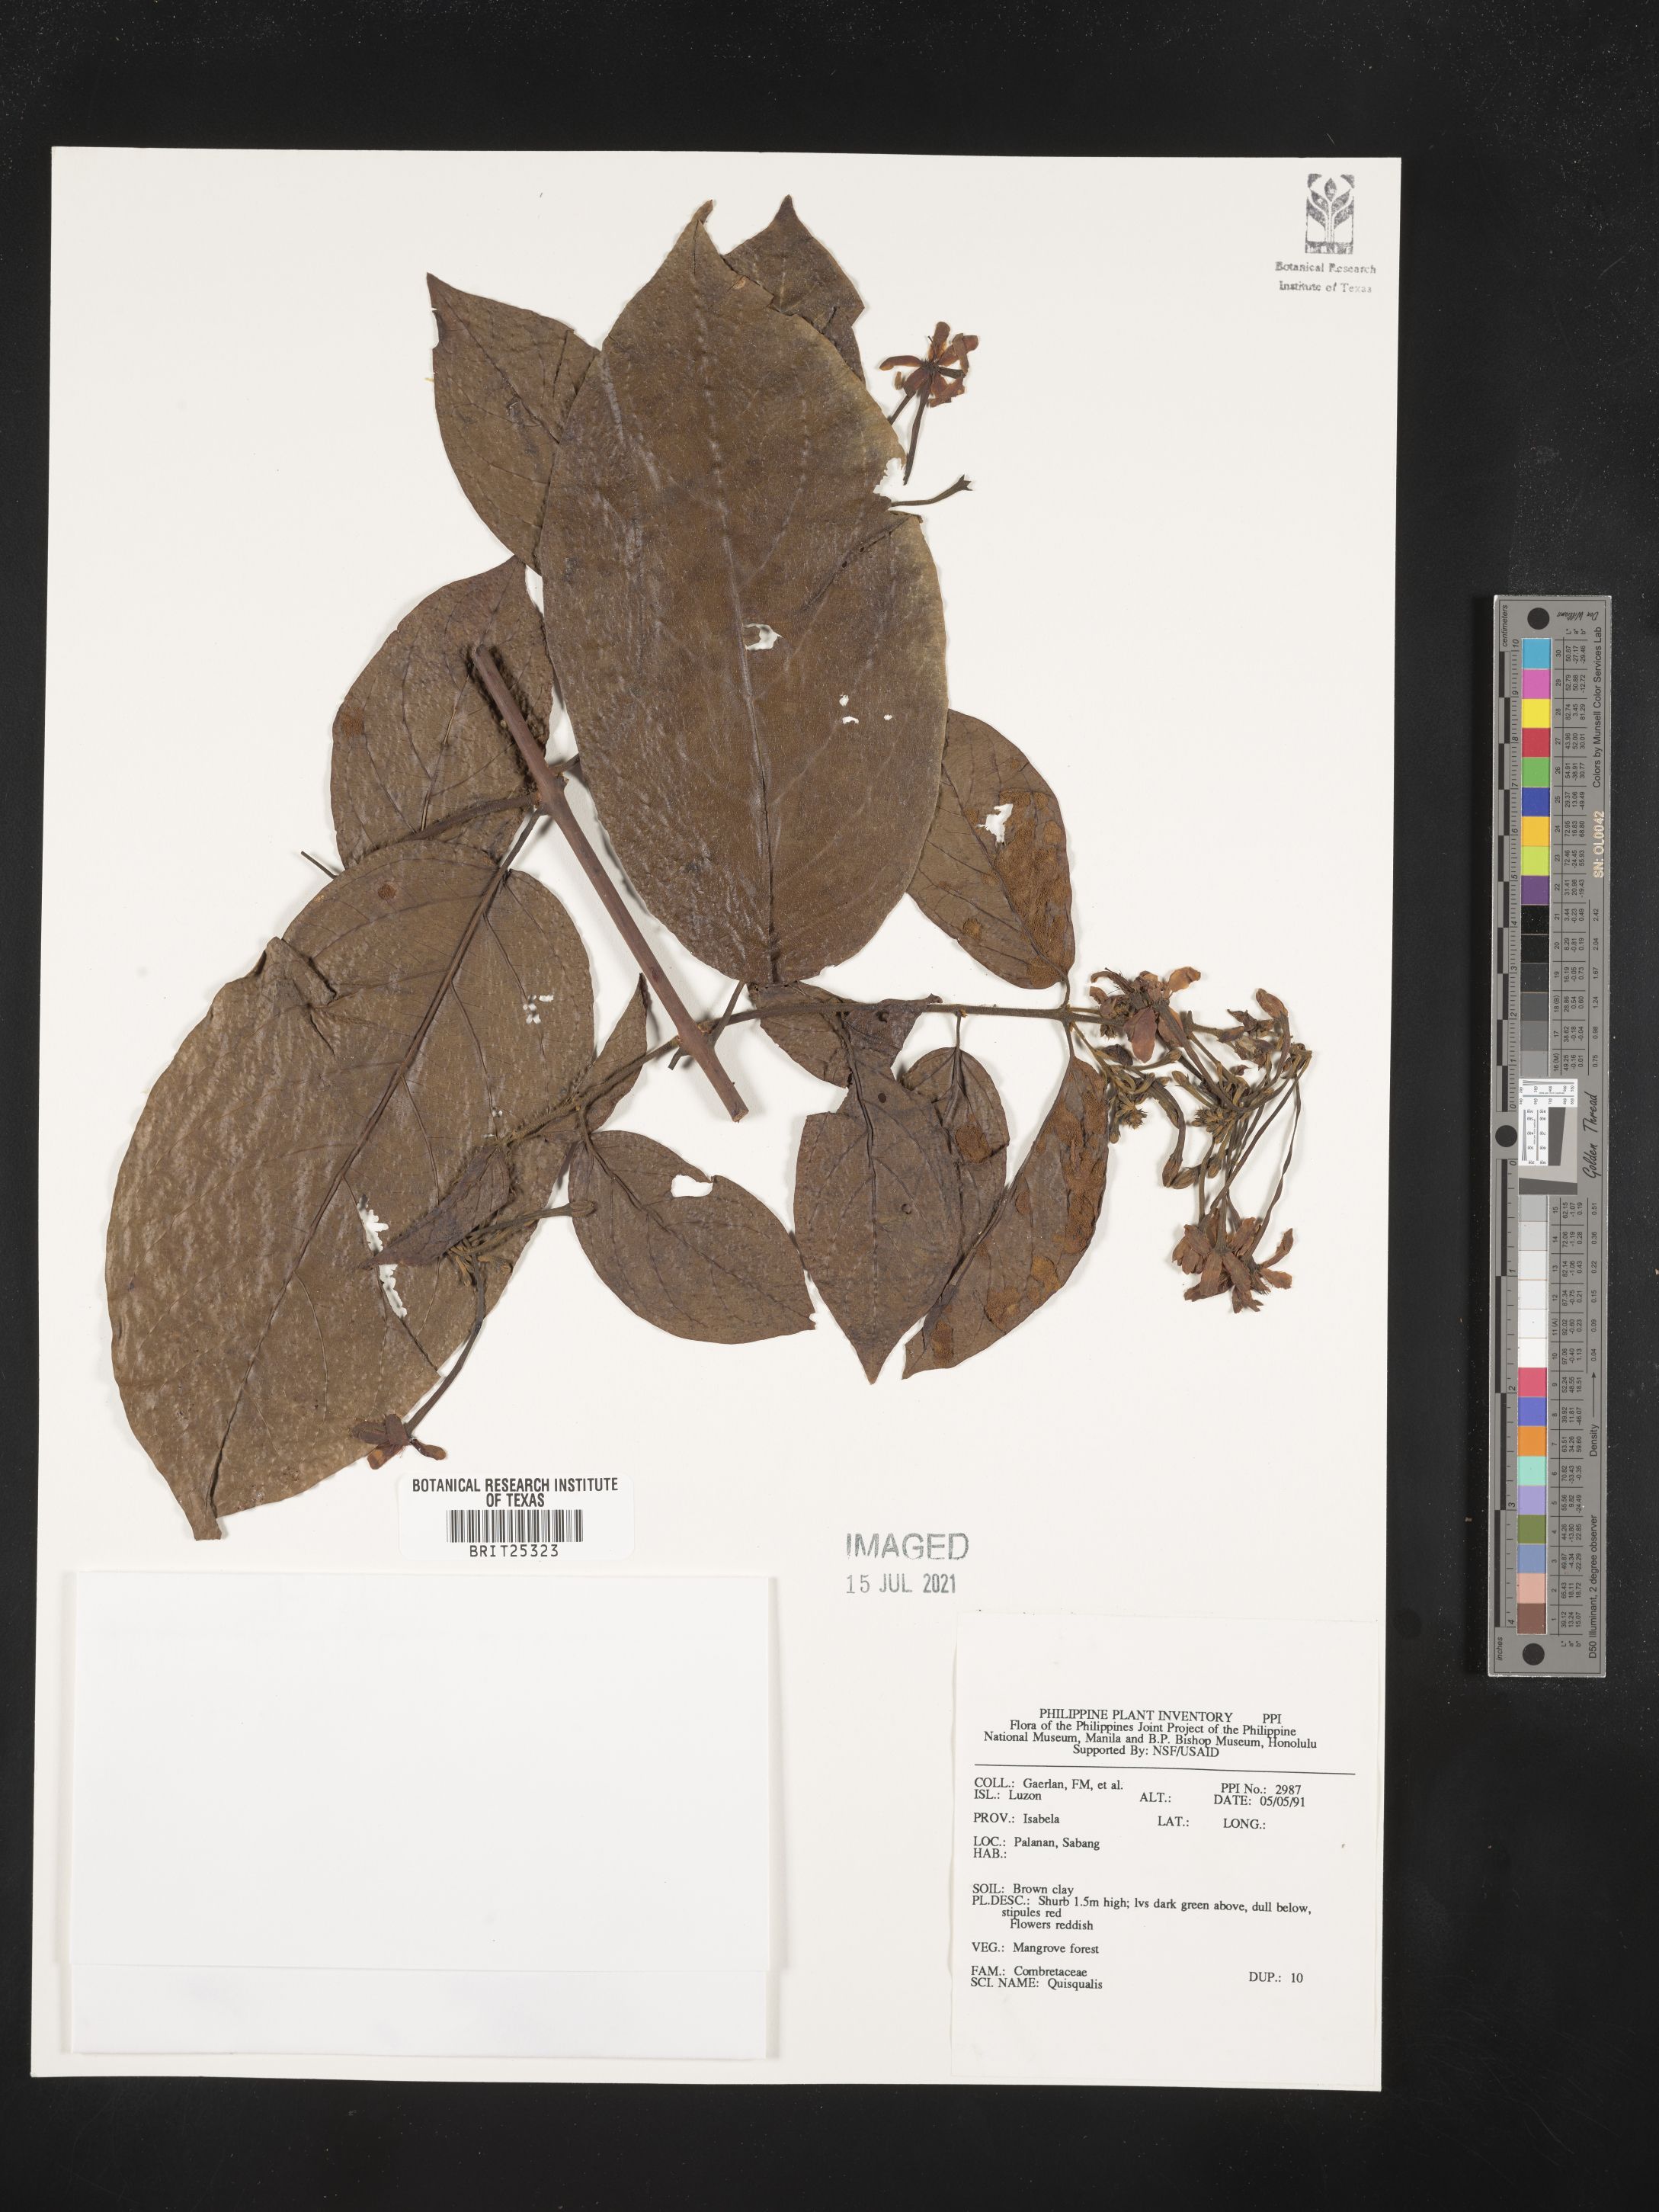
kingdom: Plantae
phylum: Tracheophyta
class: Magnoliopsida
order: Myrtales
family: Combretaceae
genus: Combretum
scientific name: Combretum
